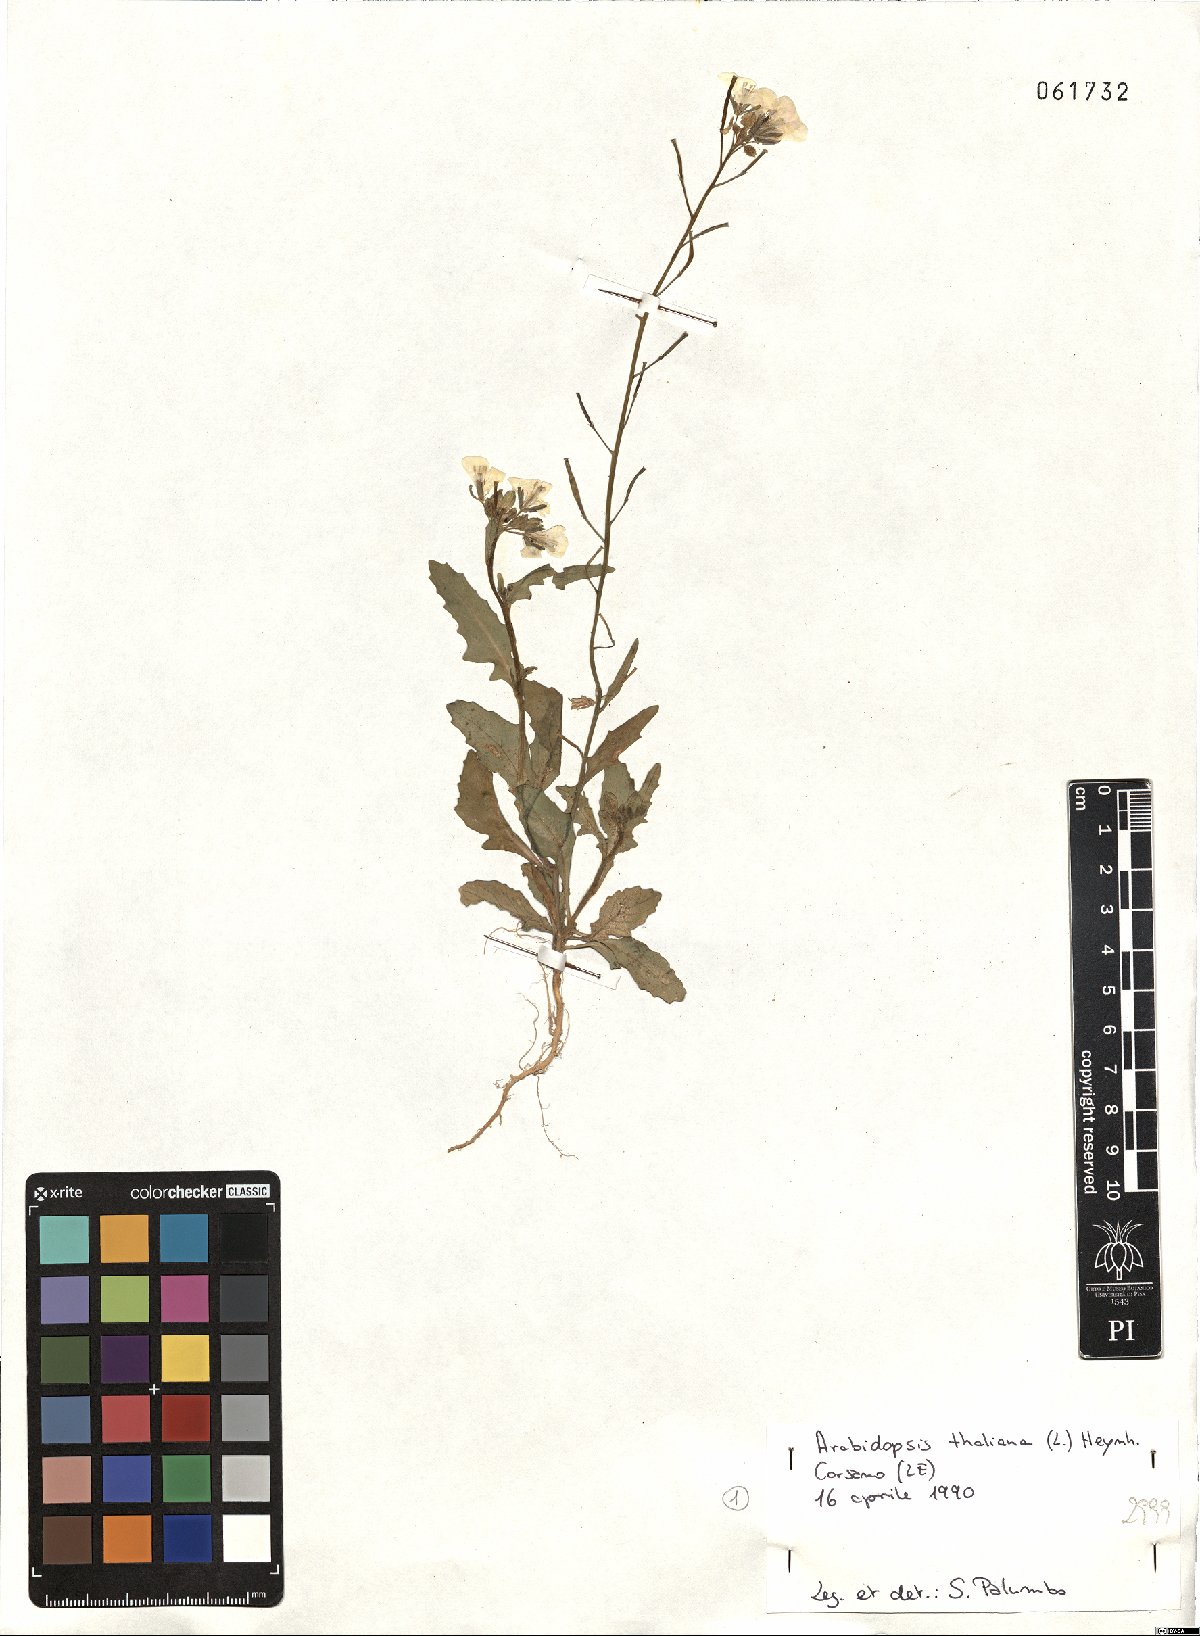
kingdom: Plantae
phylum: Tracheophyta
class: Magnoliopsida
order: Brassicales
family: Brassicaceae
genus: Diplotaxis
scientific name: Diplotaxis erucoides
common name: White rocket
